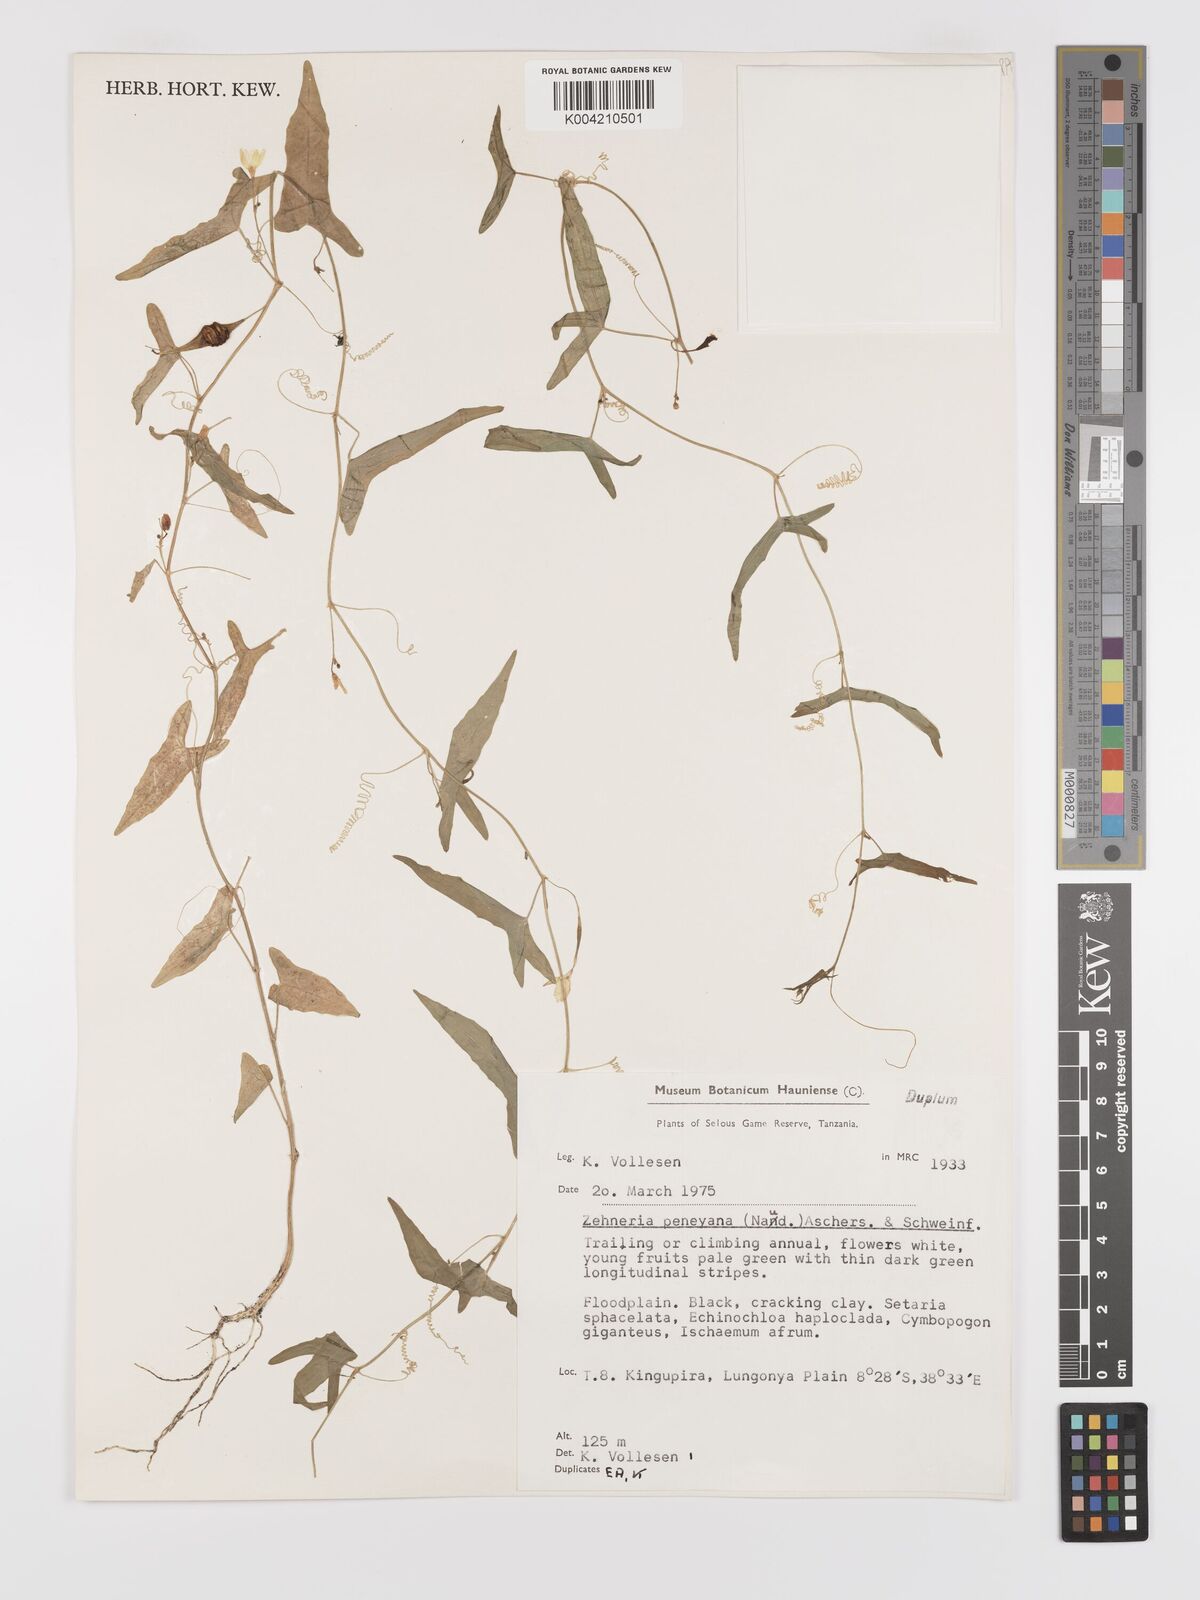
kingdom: Plantae
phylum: Tracheophyta
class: Magnoliopsida
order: Cucurbitales
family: Cucurbitaceae
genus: Zehneria
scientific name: Zehneria peneyana
